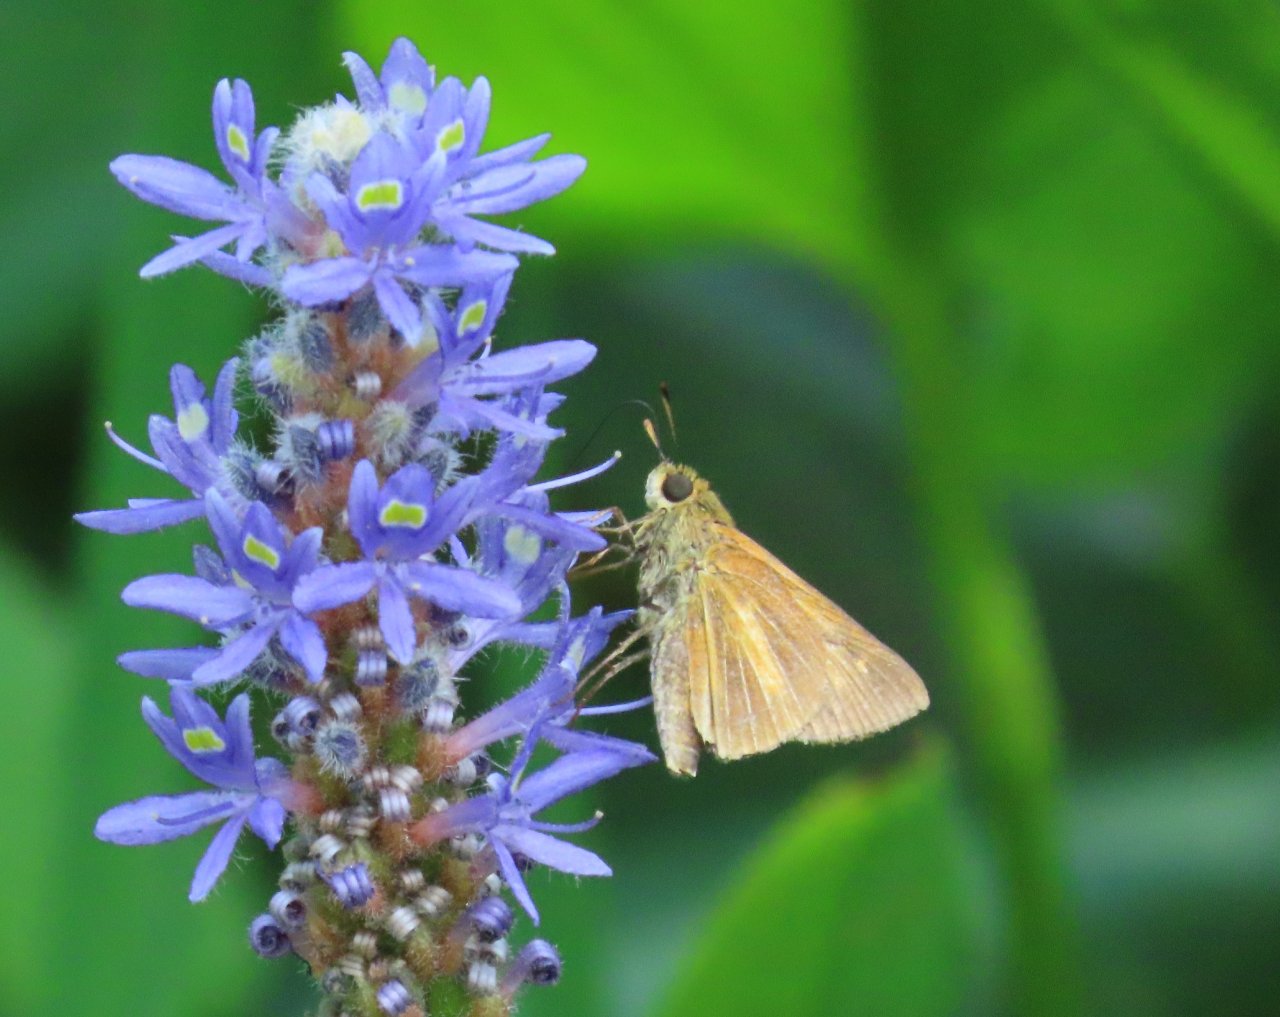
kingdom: Animalia
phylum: Arthropoda
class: Insecta
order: Lepidoptera
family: Hesperiidae
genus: Euphyes
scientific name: Euphyes dion
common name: Dion Skipper
